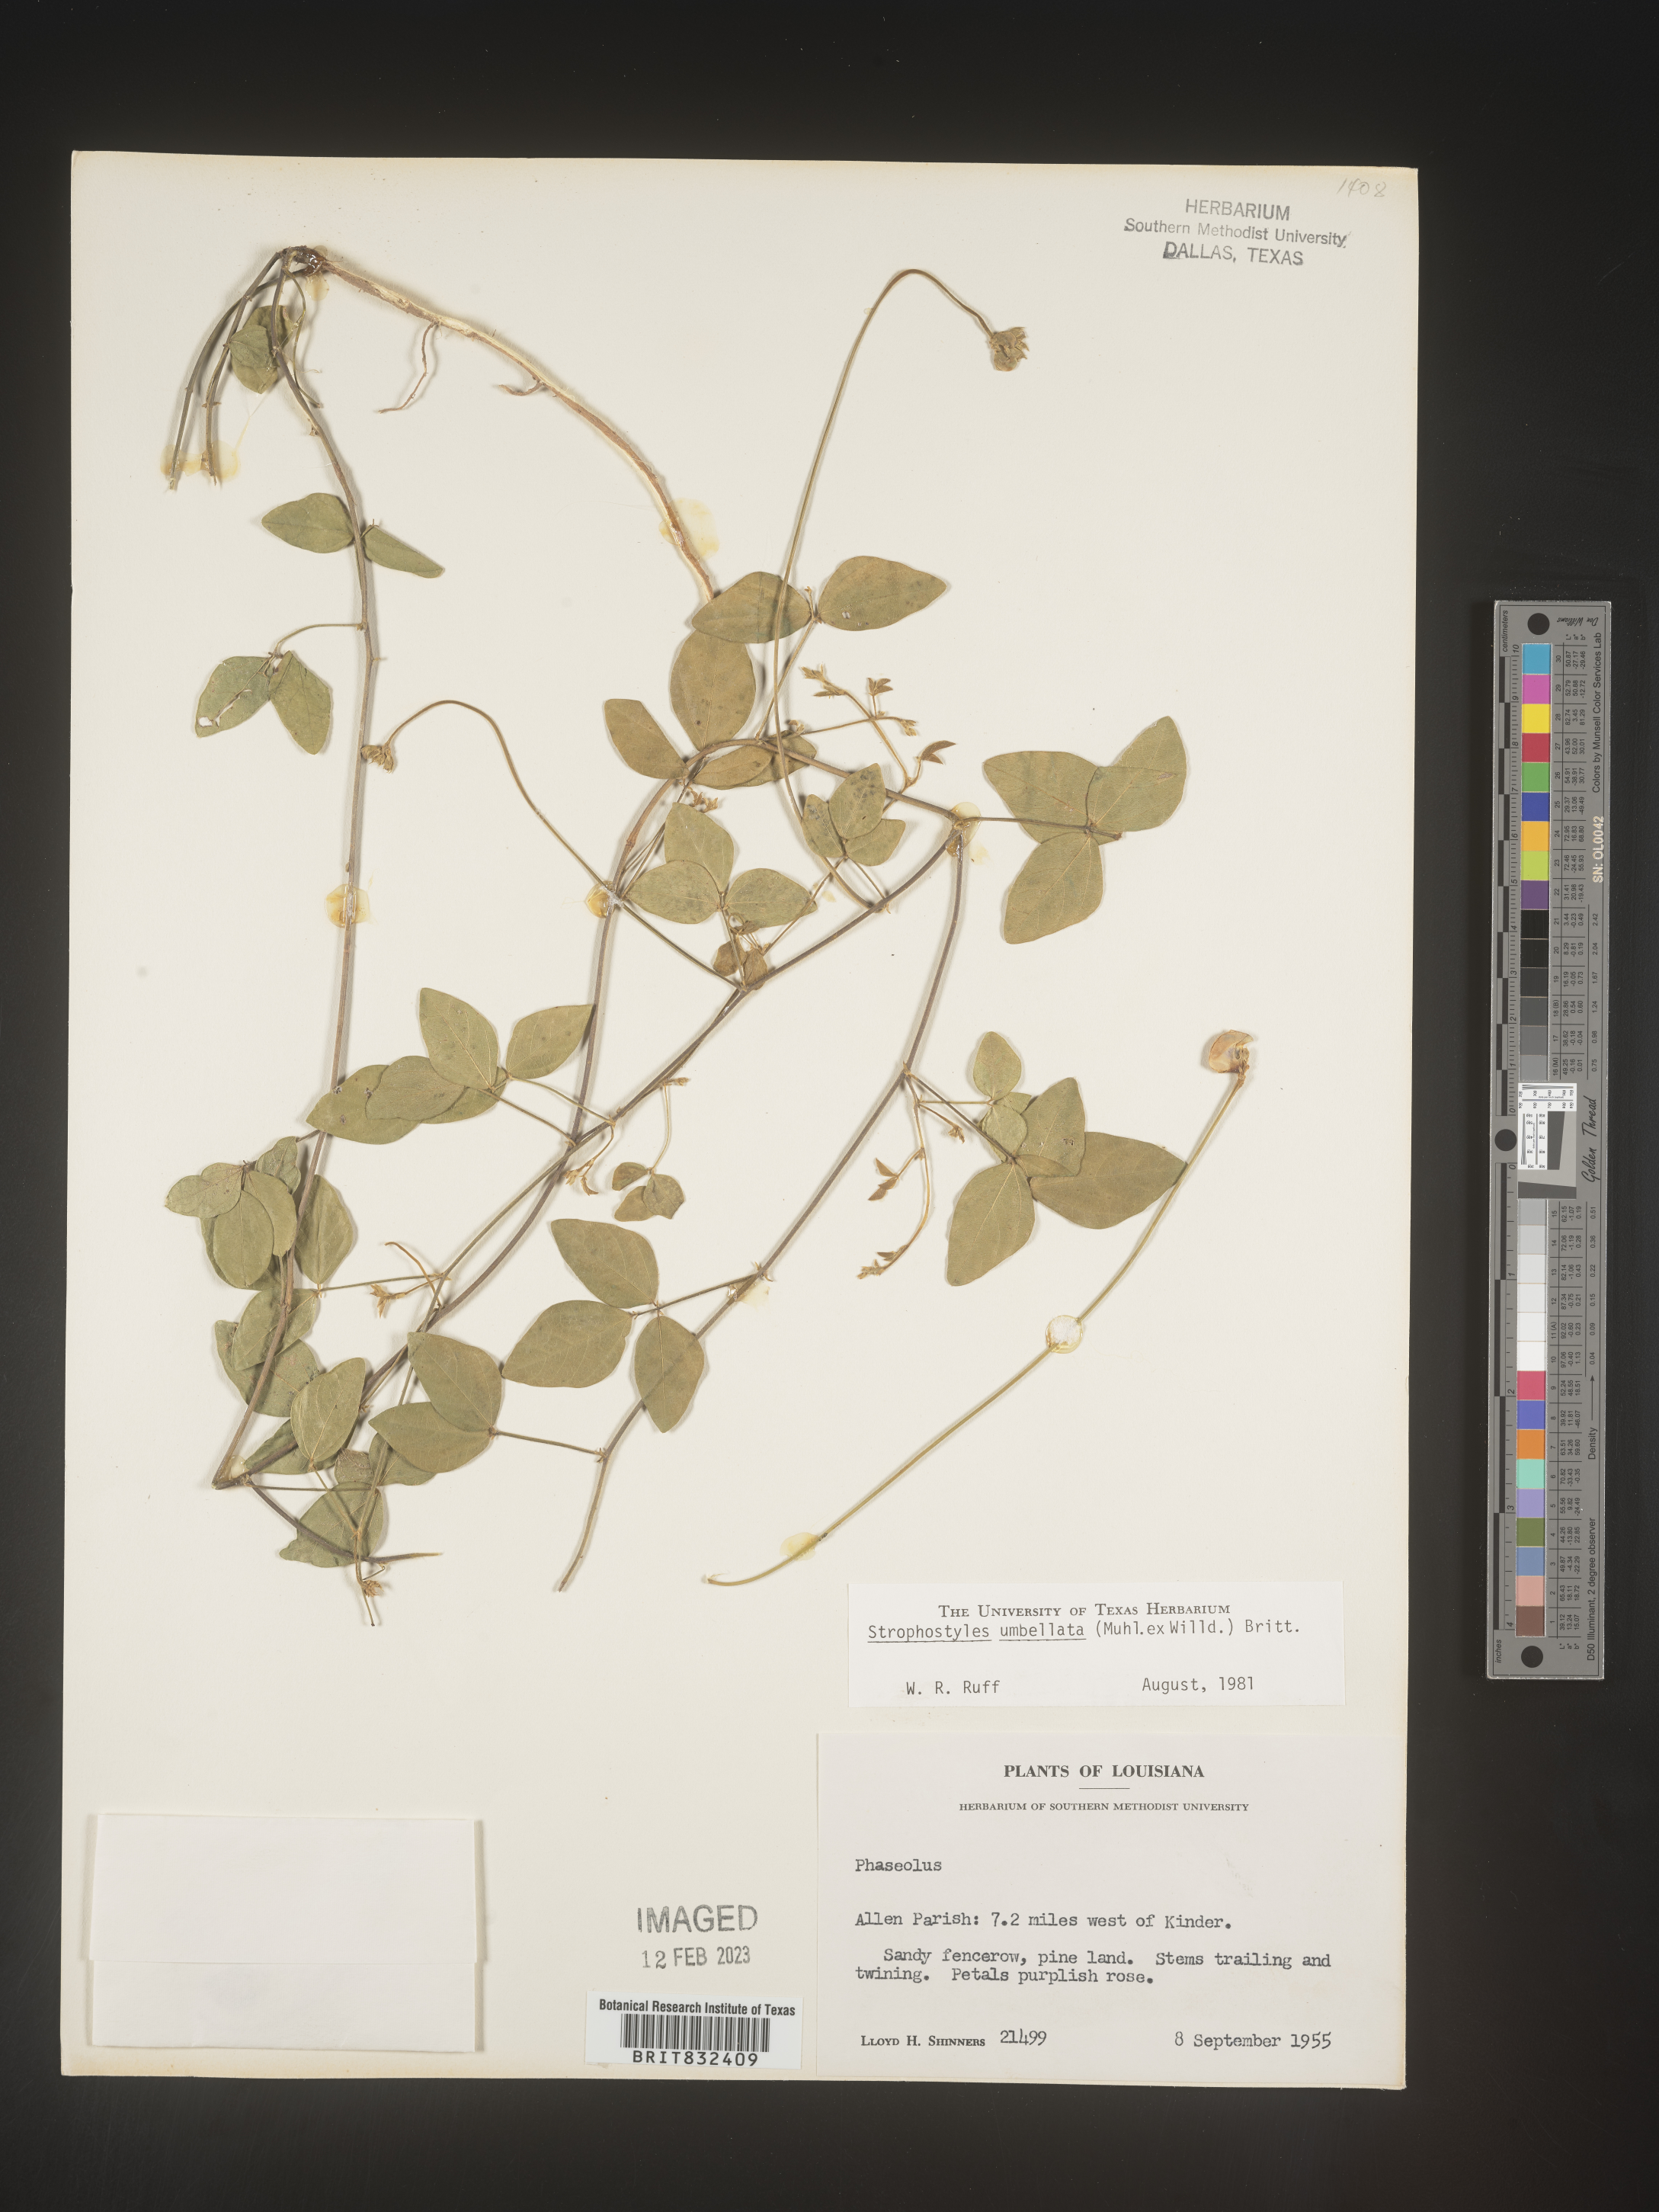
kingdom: Plantae
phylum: Tracheophyta
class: Magnoliopsida
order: Fabales
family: Fabaceae
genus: Strophostyles
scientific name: Strophostyles umbellata
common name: Perennial wild bean
